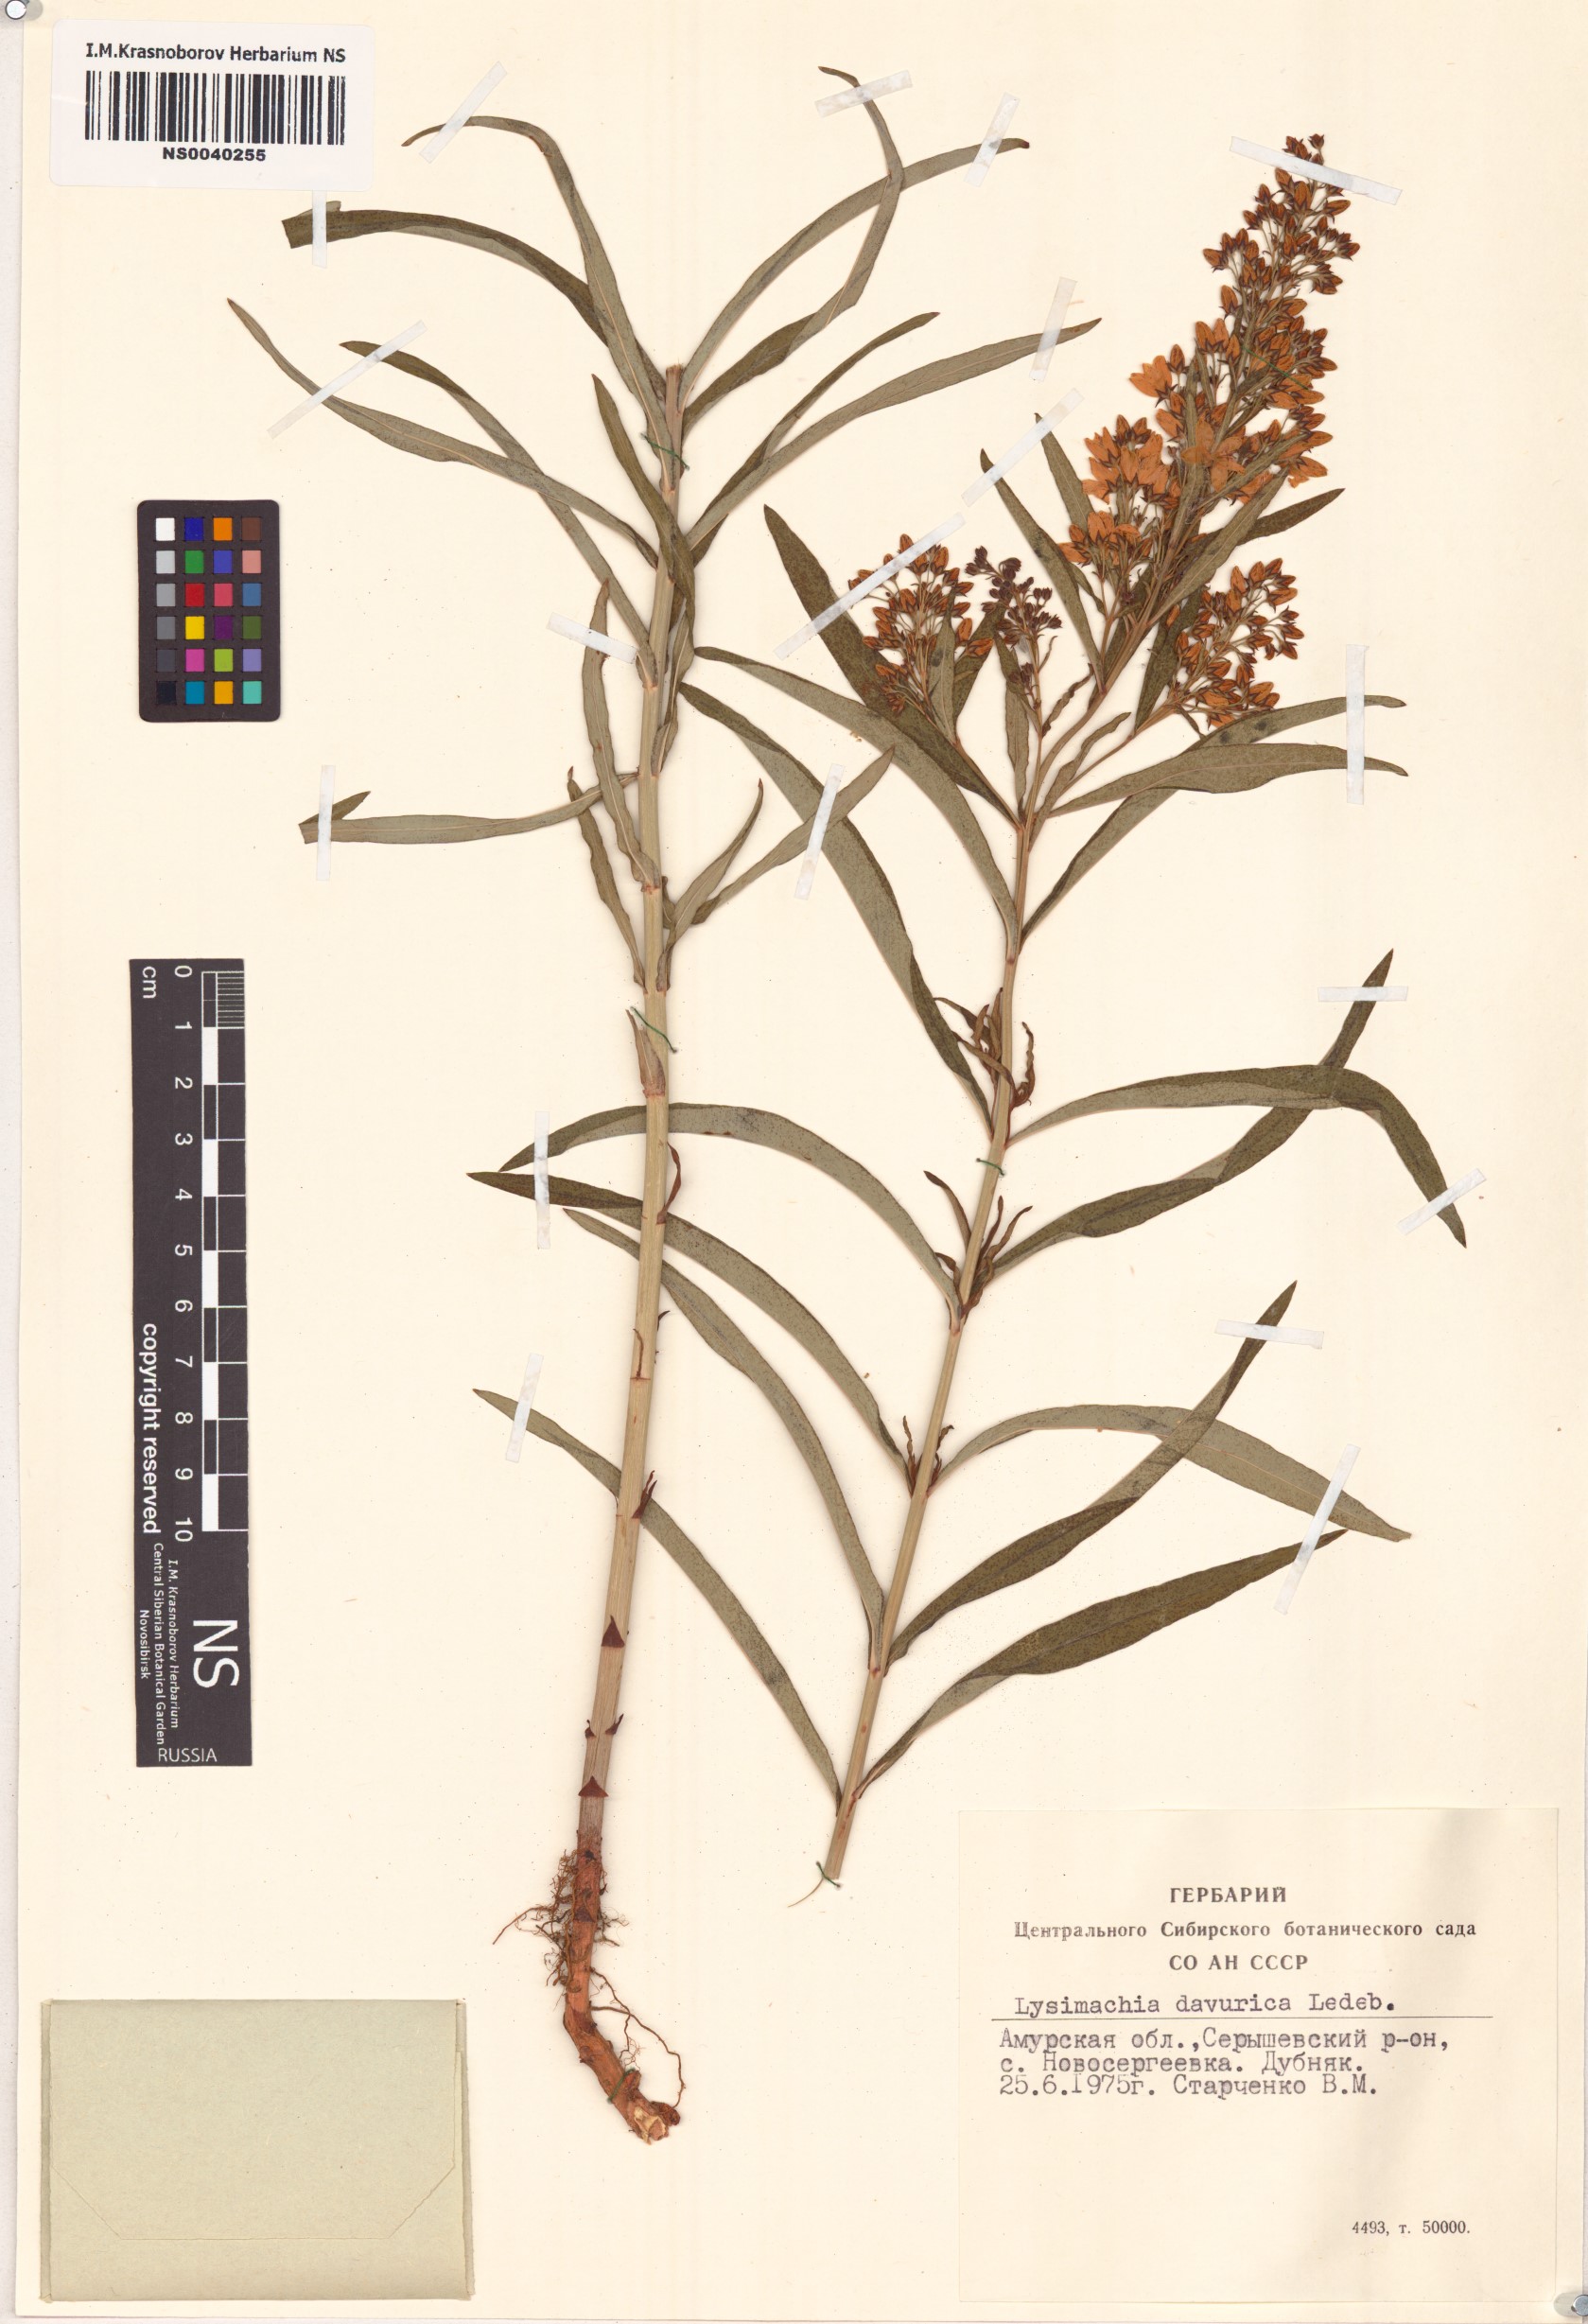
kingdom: Plantae
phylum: Tracheophyta
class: Magnoliopsida
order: Ericales
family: Primulaceae
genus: Lysimachia
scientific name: Lysimachia davurica
